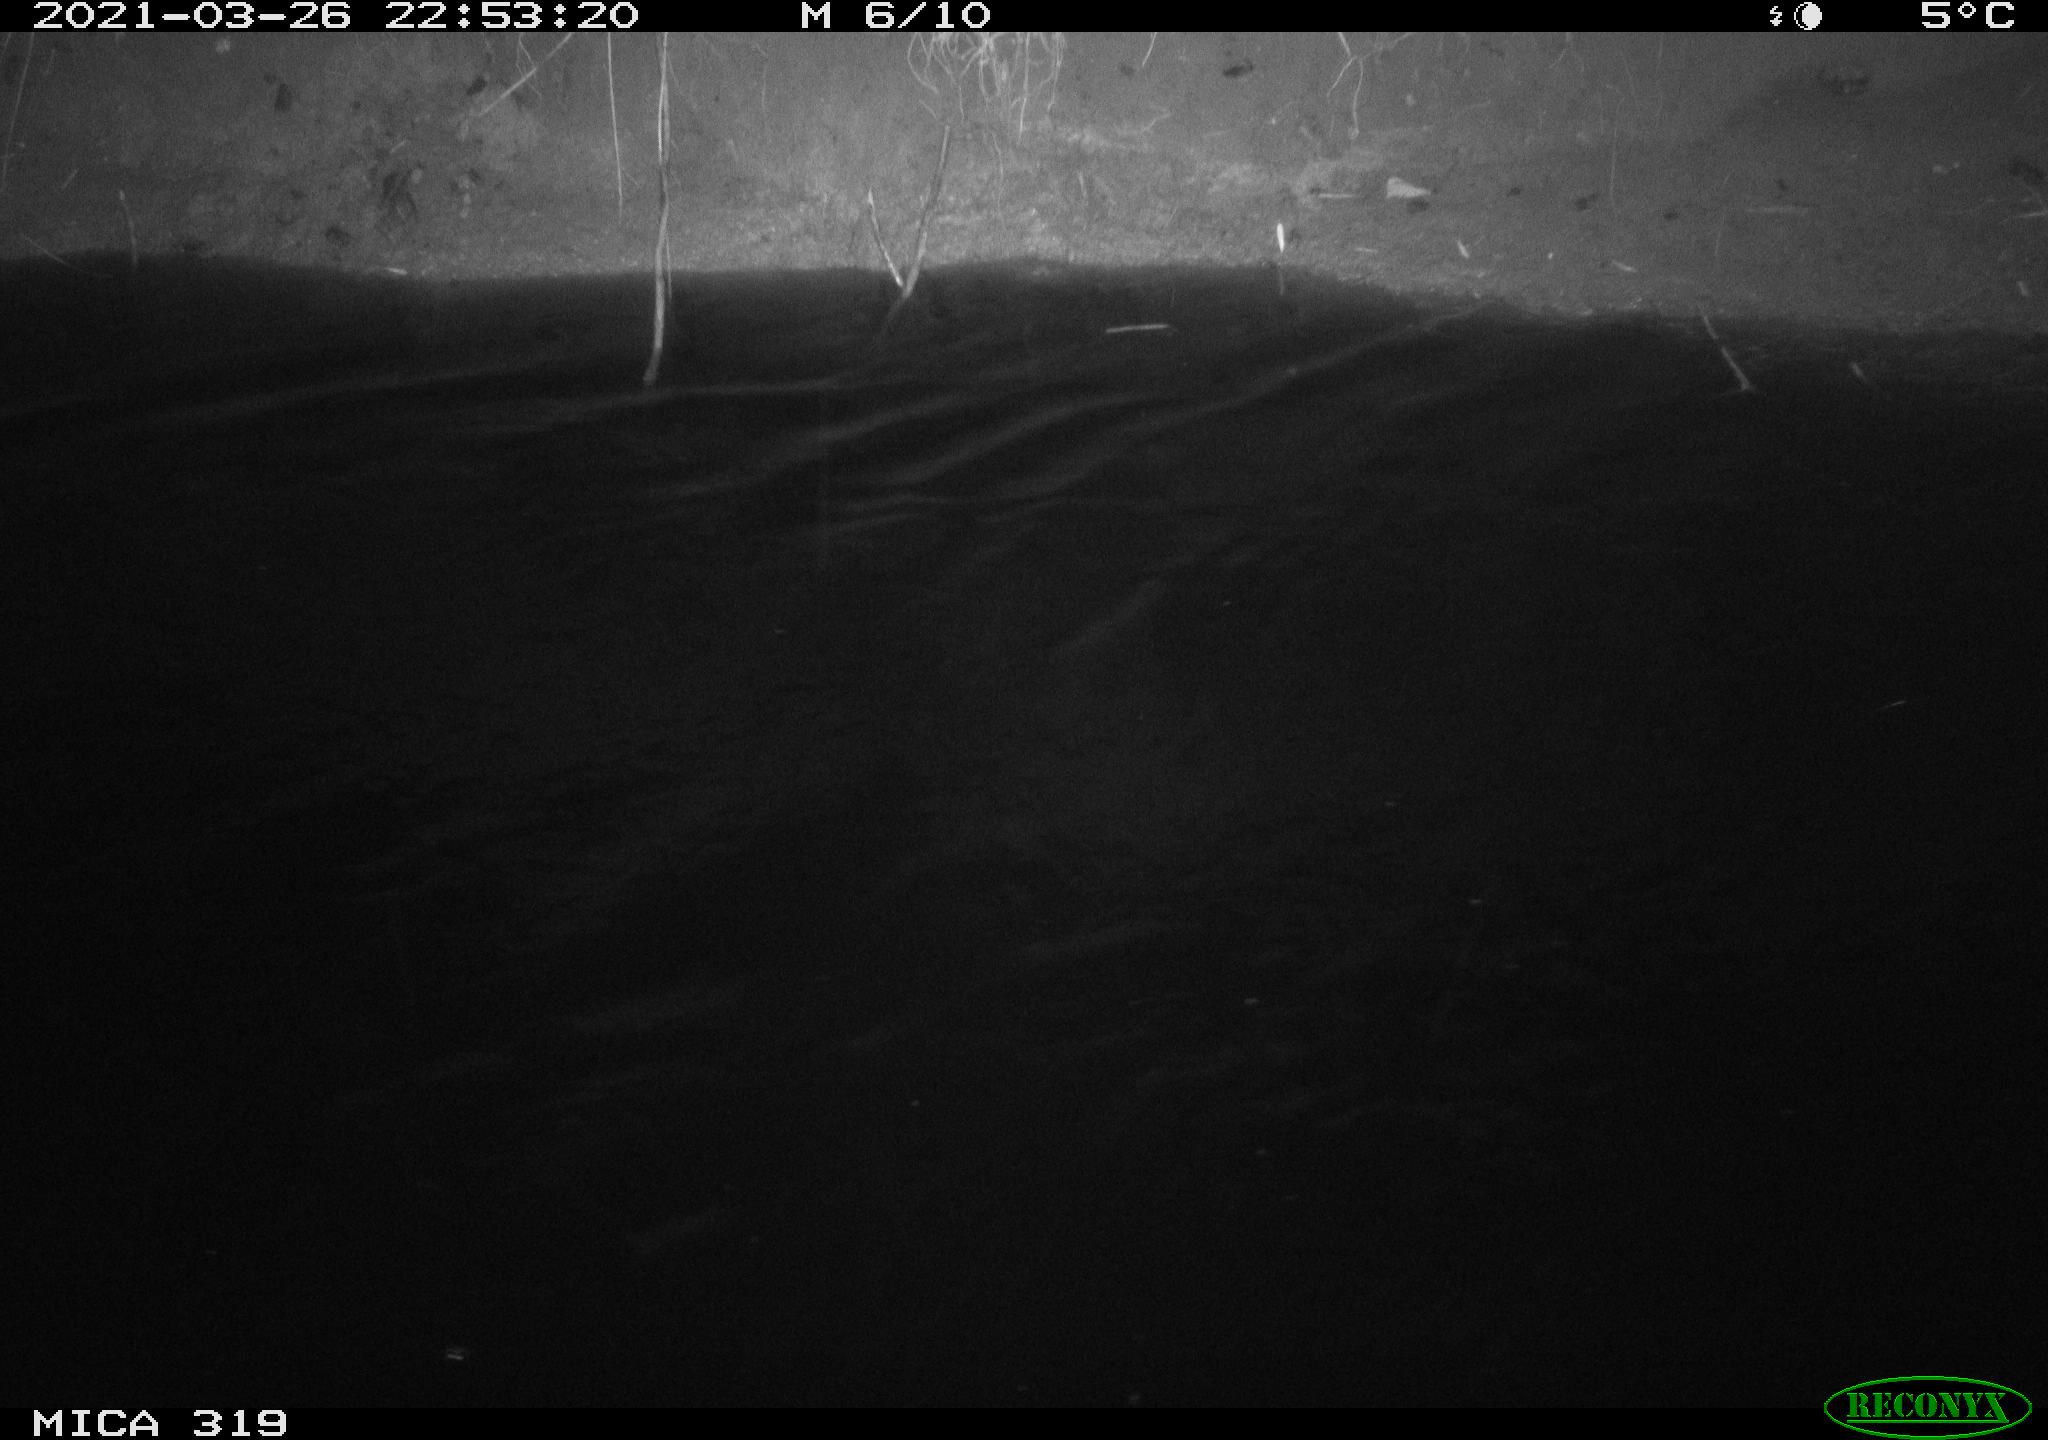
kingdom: Animalia
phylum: Chordata
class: Aves
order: Anseriformes
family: Anatidae
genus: Anas
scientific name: Anas platyrhynchos
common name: Mallard
